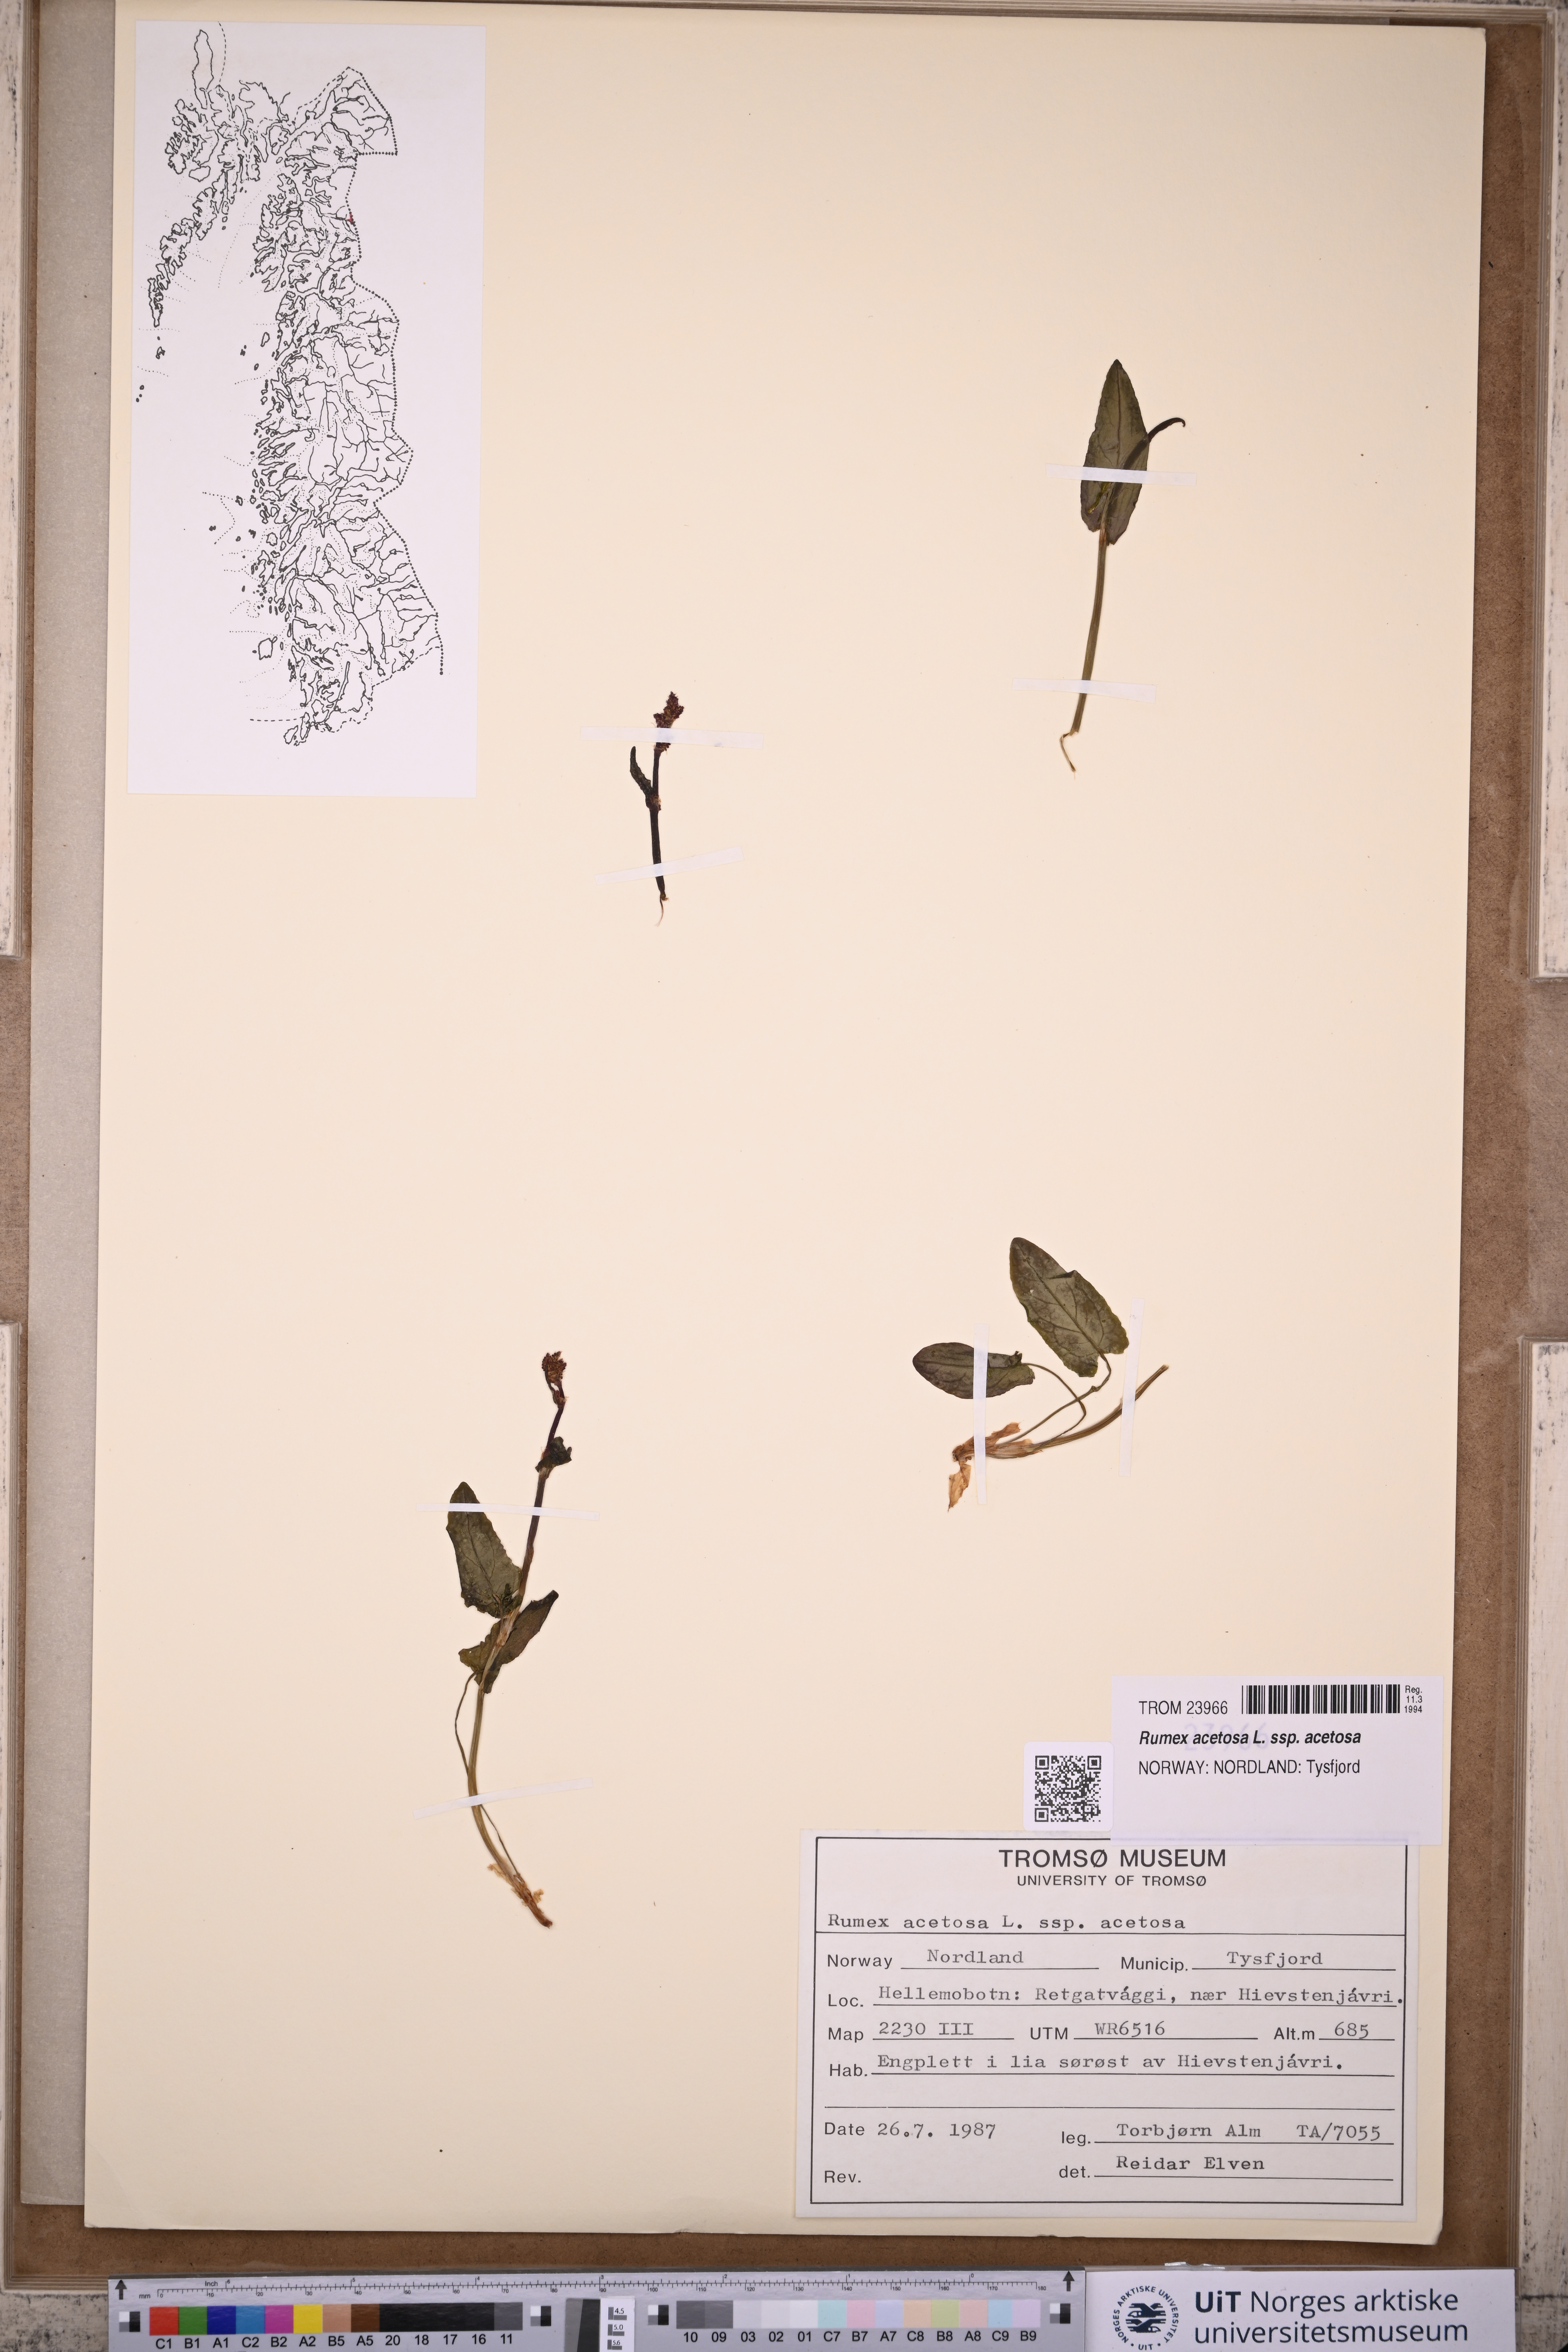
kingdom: Plantae
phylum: Tracheophyta
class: Magnoliopsida
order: Caryophyllales
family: Polygonaceae
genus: Rumex
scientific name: Rumex acetosa
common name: Garden sorrel
